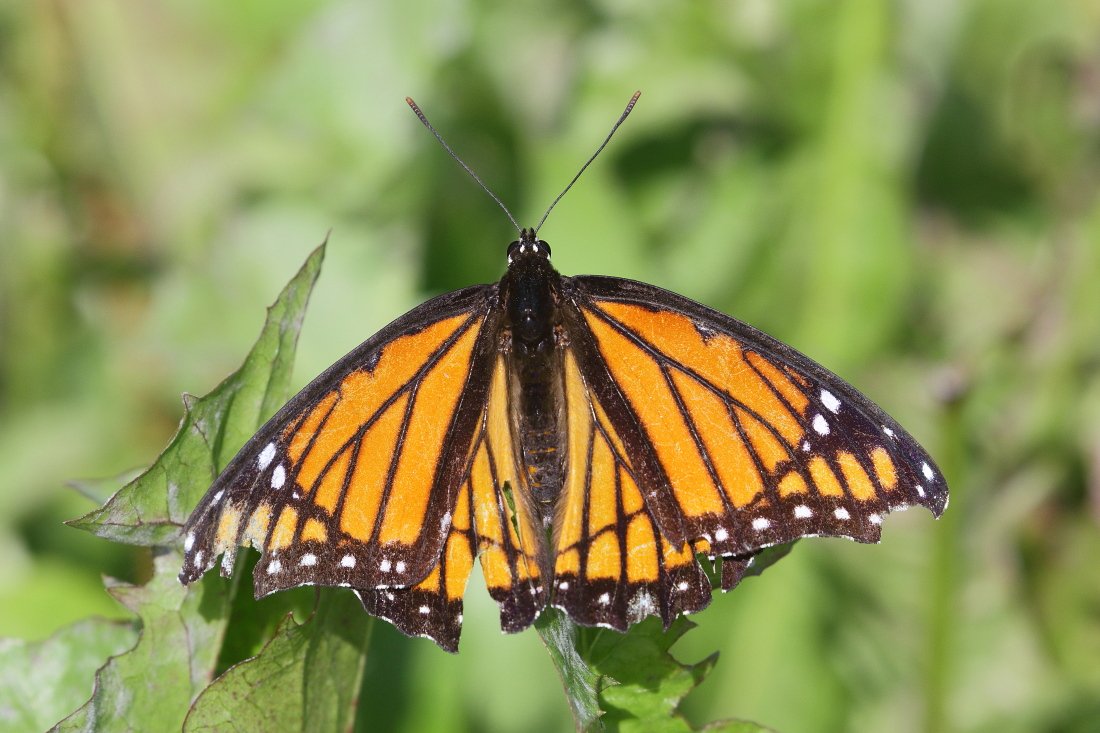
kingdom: Animalia
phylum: Arthropoda
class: Insecta
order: Lepidoptera
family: Nymphalidae
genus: Limenitis
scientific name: Limenitis archippus
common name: Viceroy
